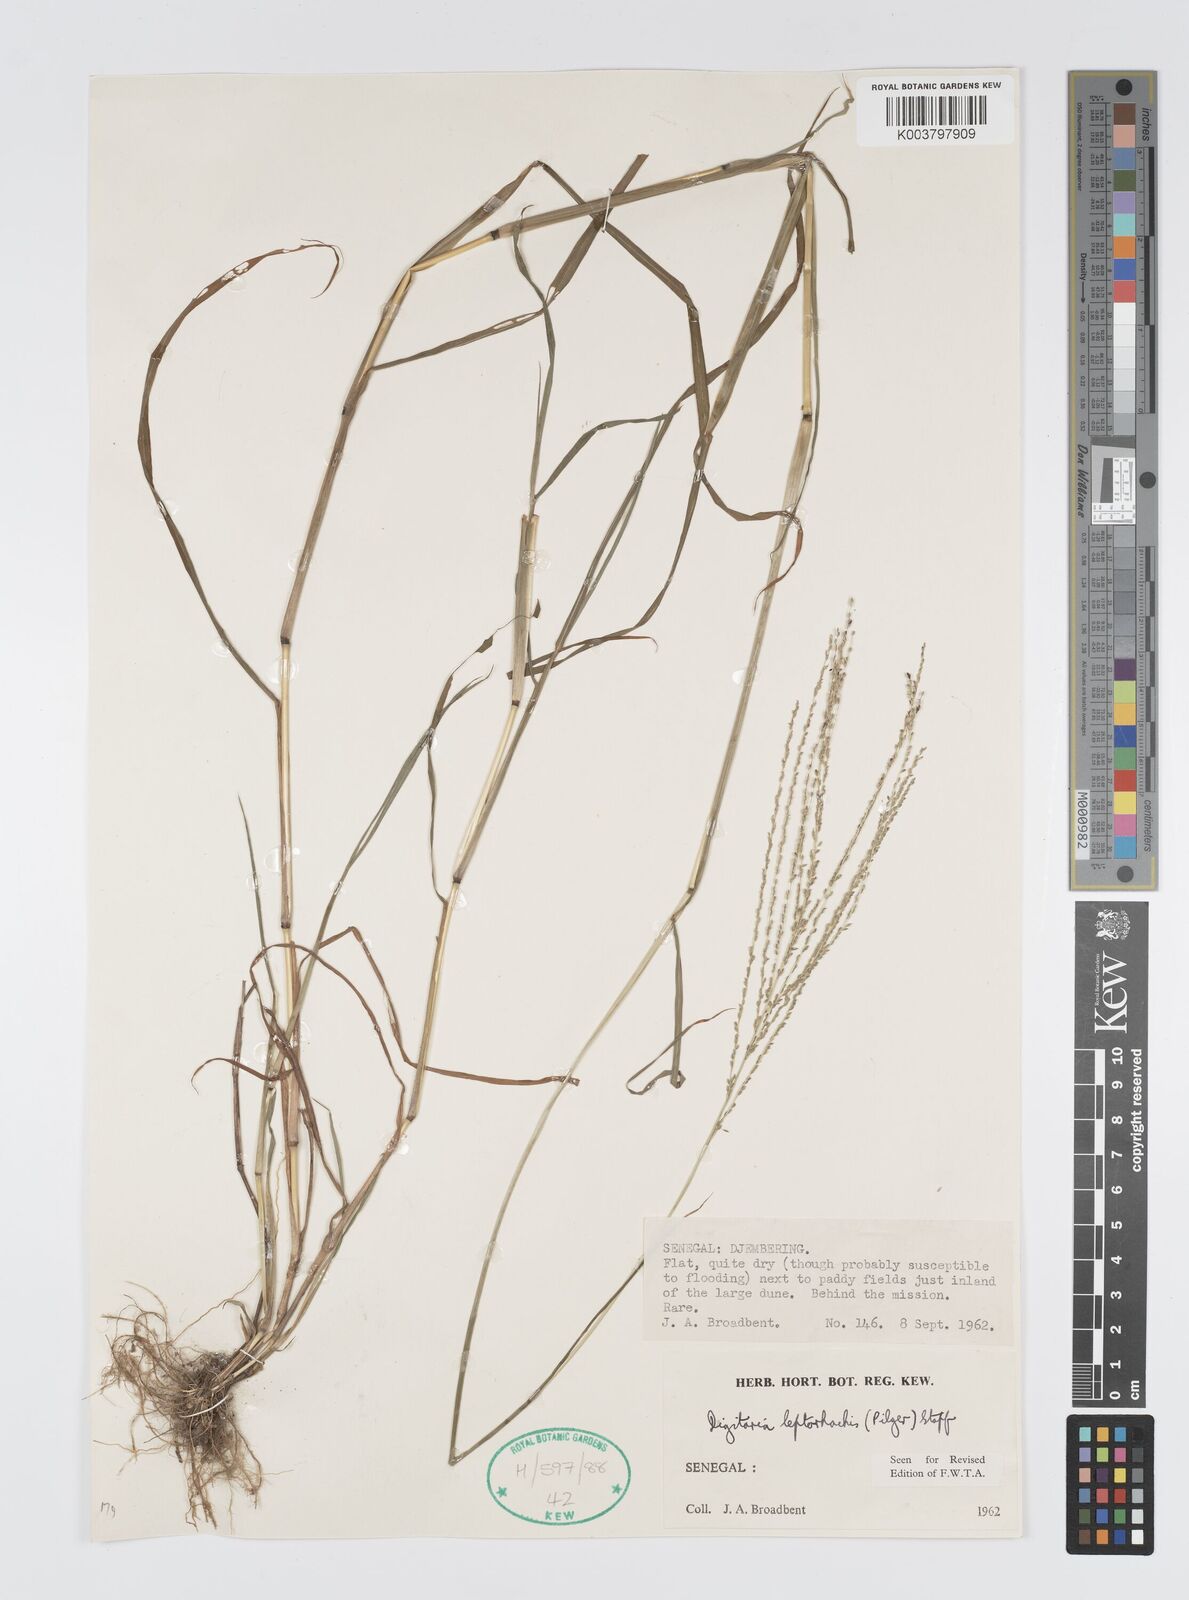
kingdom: Plantae
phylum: Tracheophyta
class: Liliopsida
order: Poales
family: Poaceae
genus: Digitaria
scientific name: Digitaria leptorhachis
